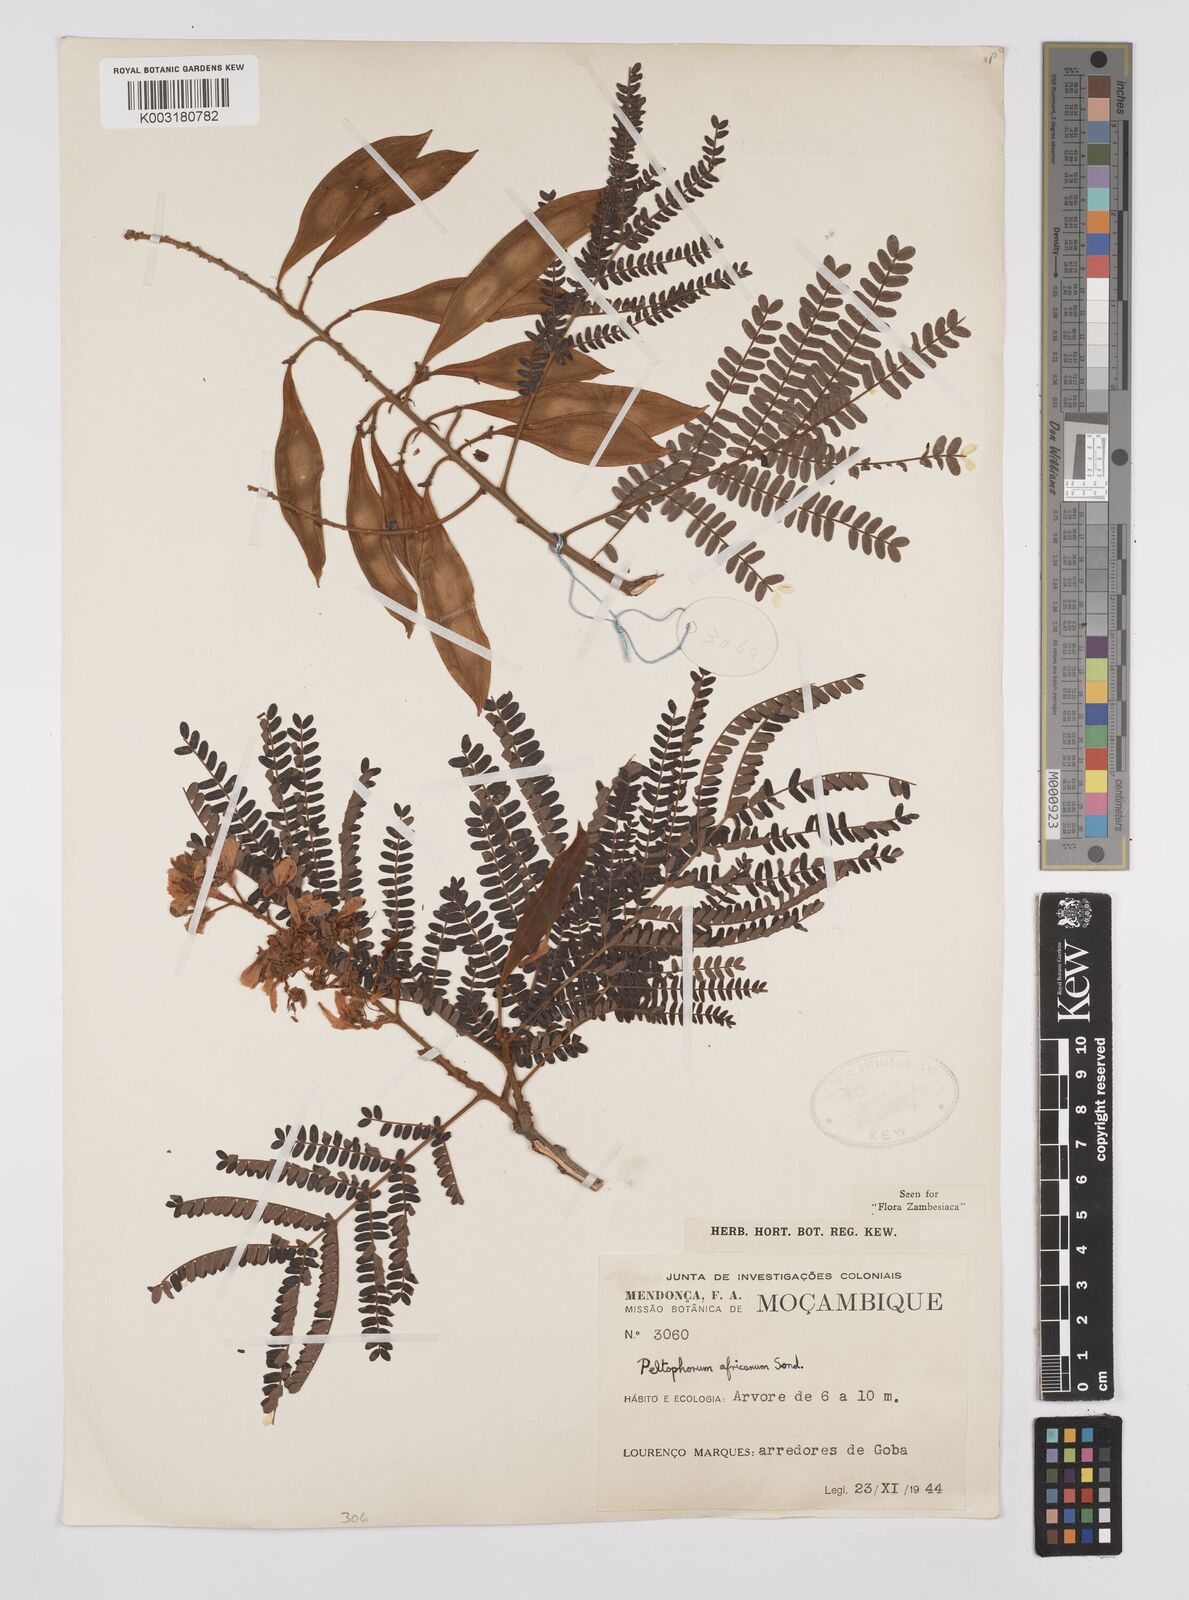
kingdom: Plantae
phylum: Tracheophyta
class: Magnoliopsida
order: Fabales
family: Fabaceae
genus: Peltophorum
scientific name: Peltophorum africanum
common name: African black wattle
